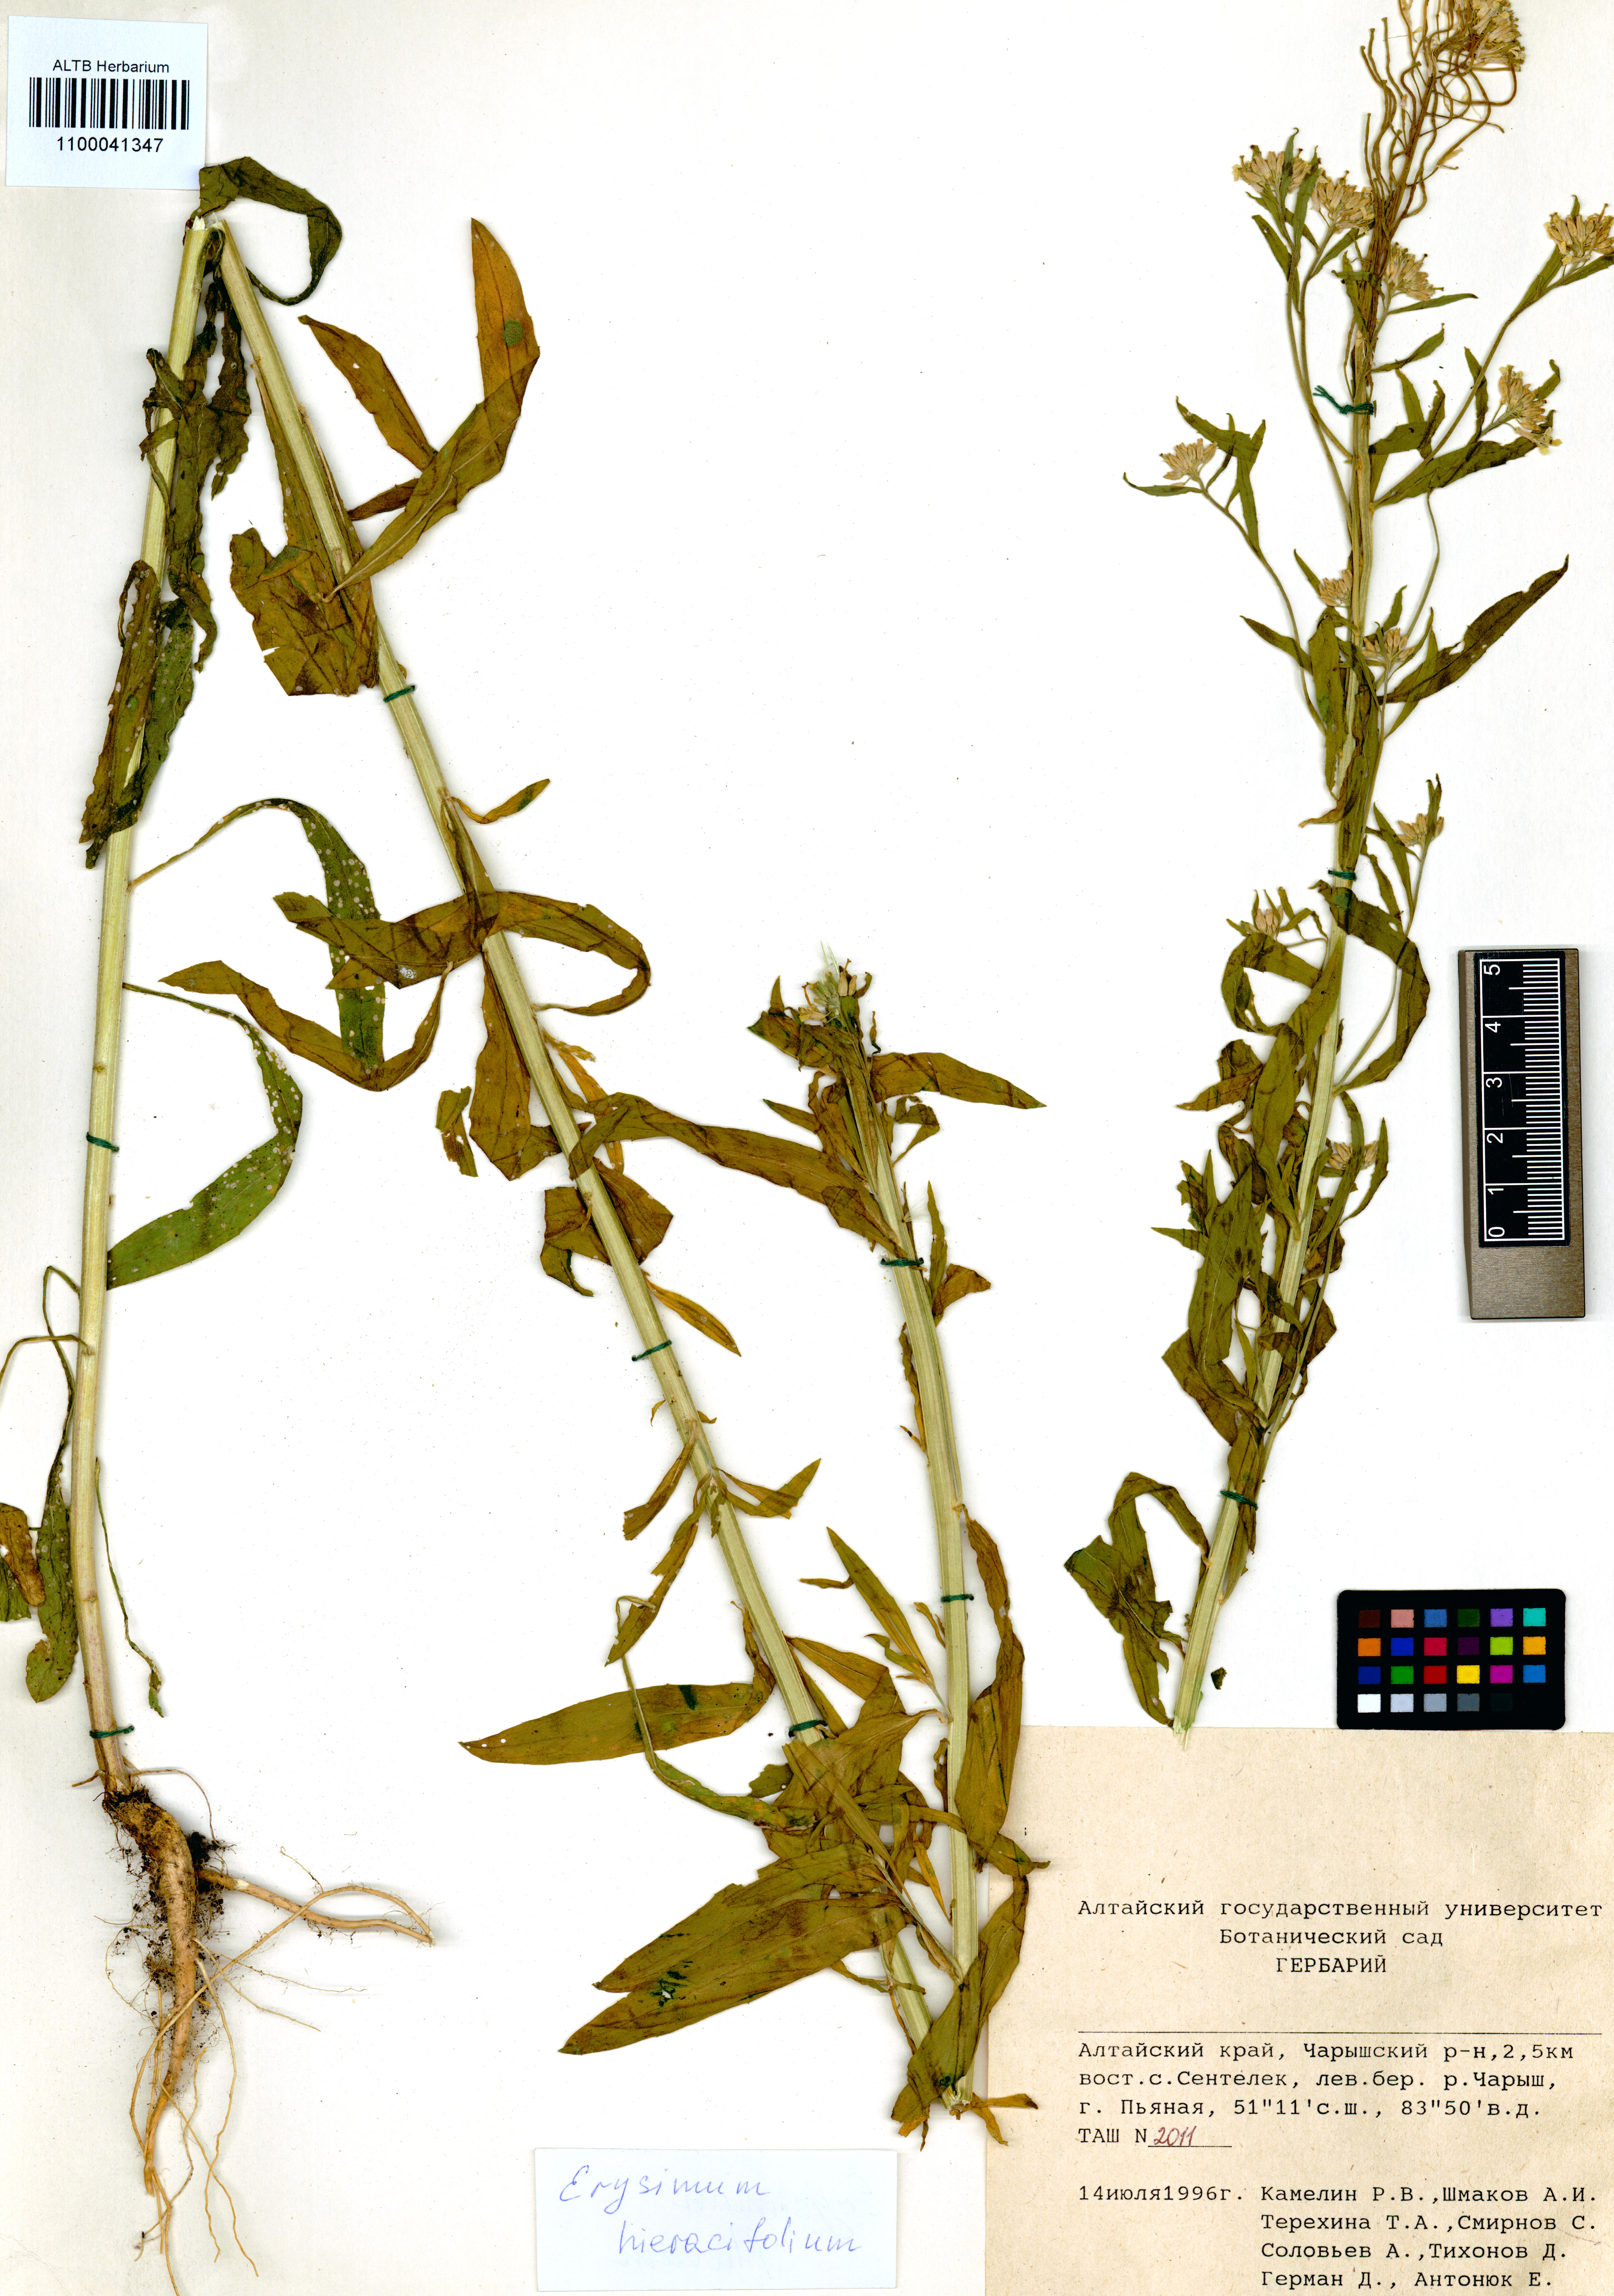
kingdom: Plantae
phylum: Tracheophyta
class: Magnoliopsida
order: Brassicales
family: Brassicaceae
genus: Erysimum
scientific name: Erysimum hieraciifolium
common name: European wallflower
